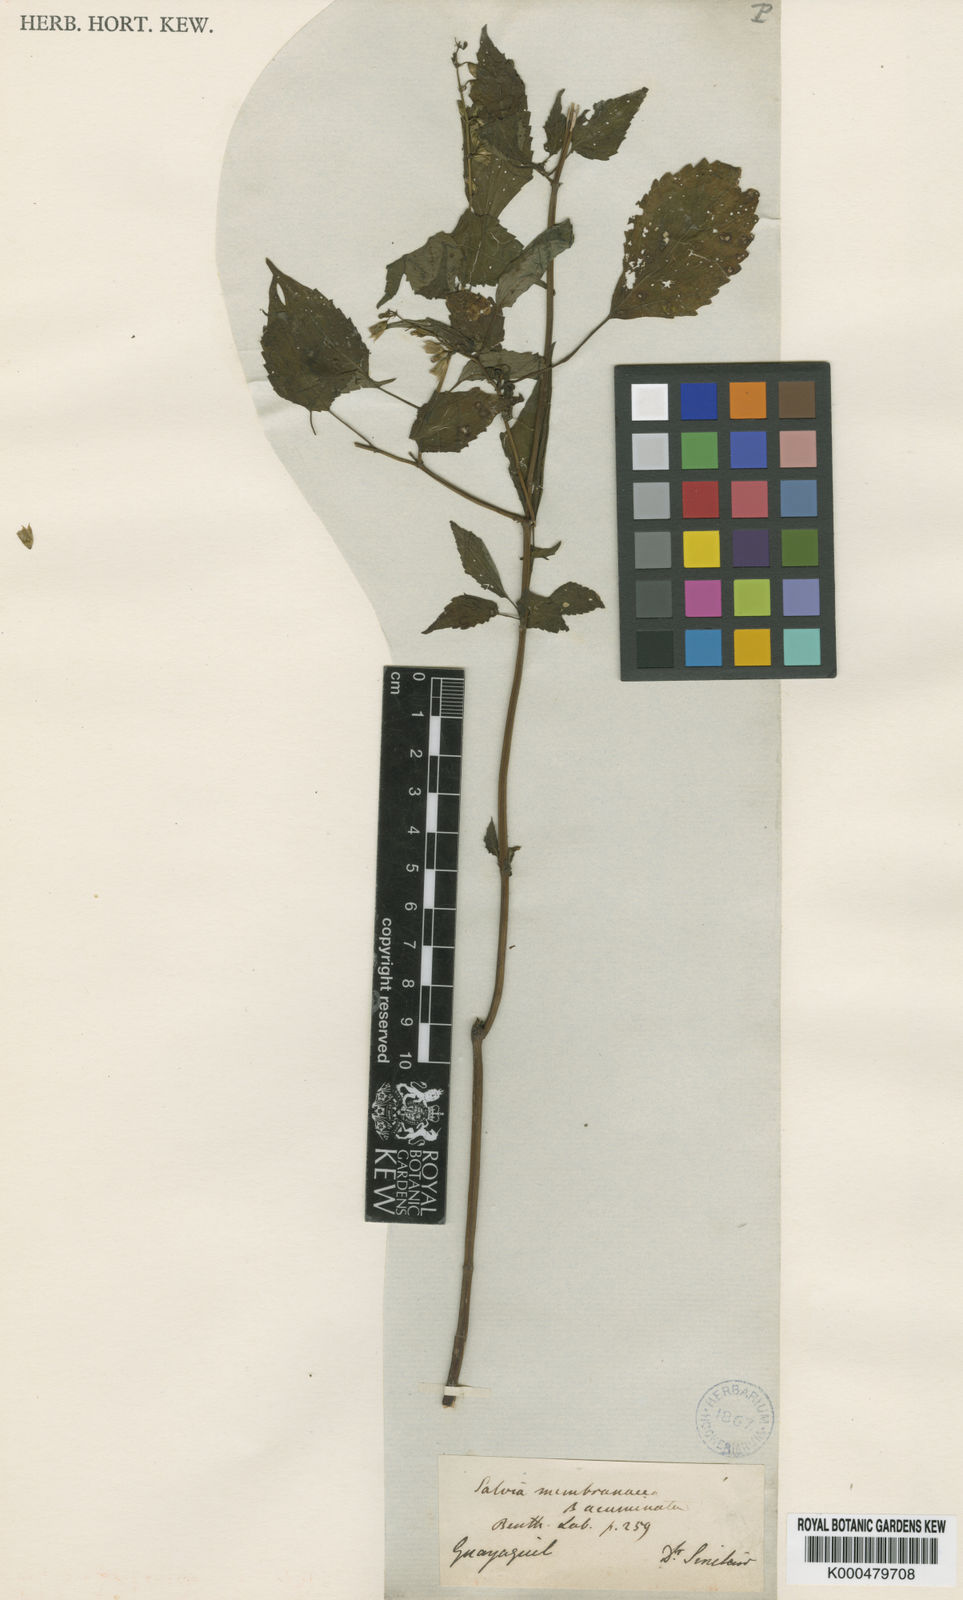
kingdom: Plantae
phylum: Tracheophyta
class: Magnoliopsida
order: Lamiales
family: Lamiaceae
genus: Salvia
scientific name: Salvia angulata
